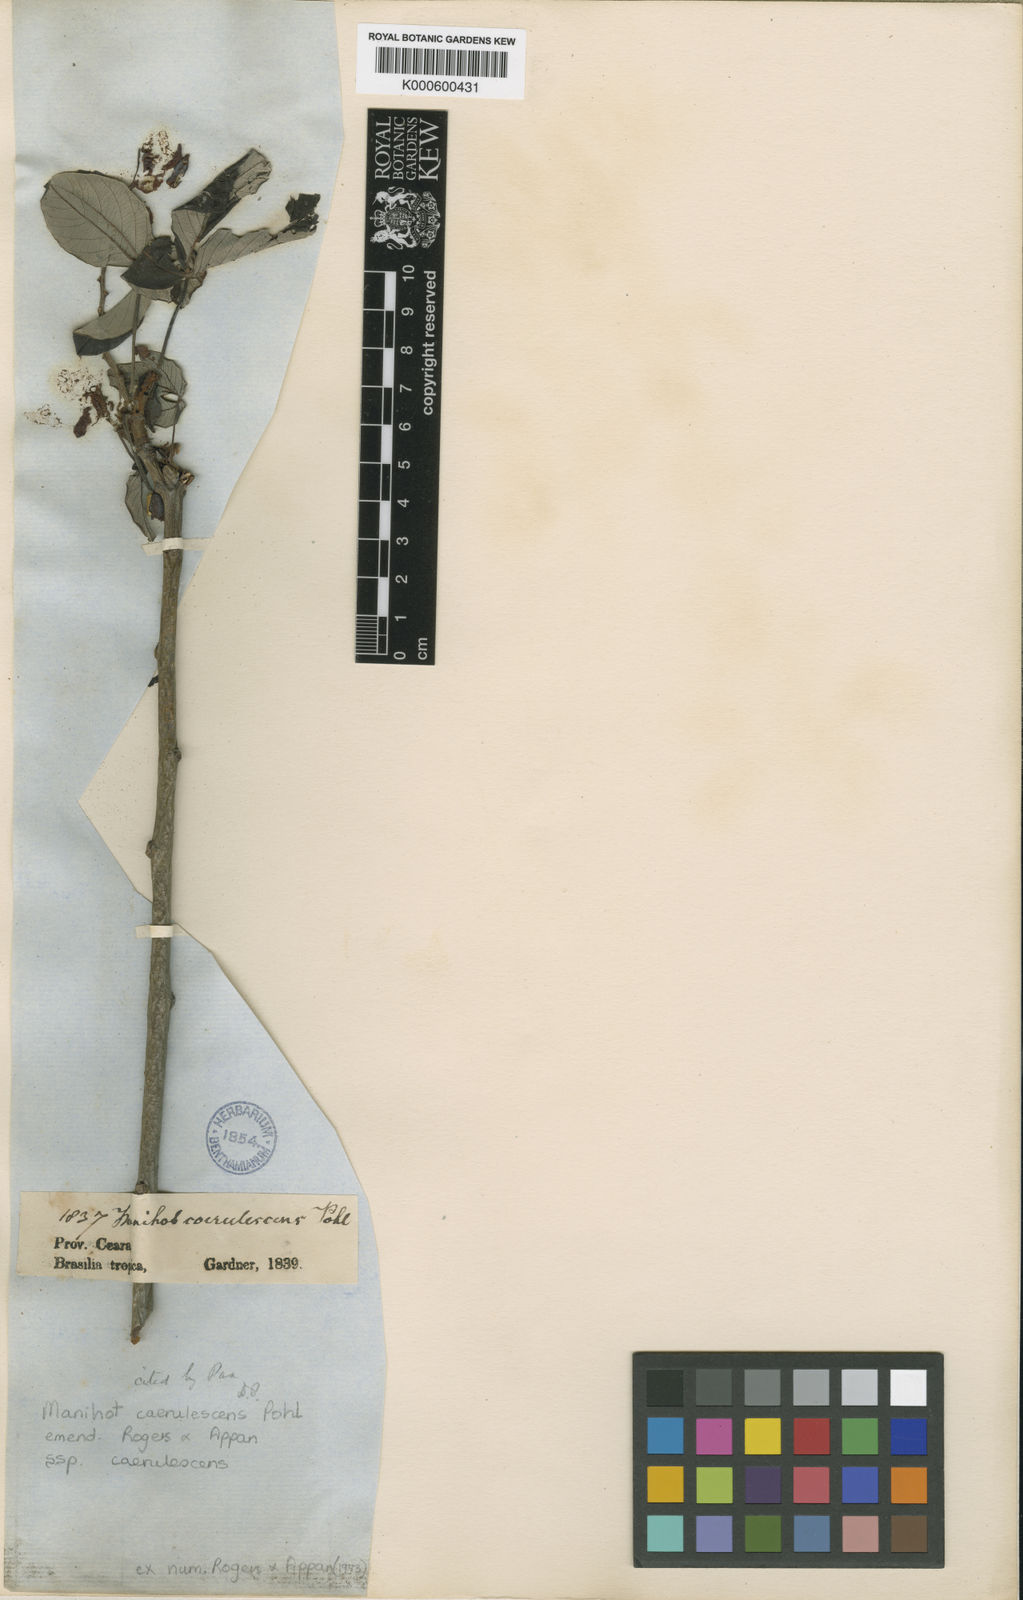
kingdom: Plantae
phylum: Tracheophyta
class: Magnoliopsida
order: Malpighiales
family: Euphorbiaceae
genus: Manihot
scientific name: Manihot caerulescens
